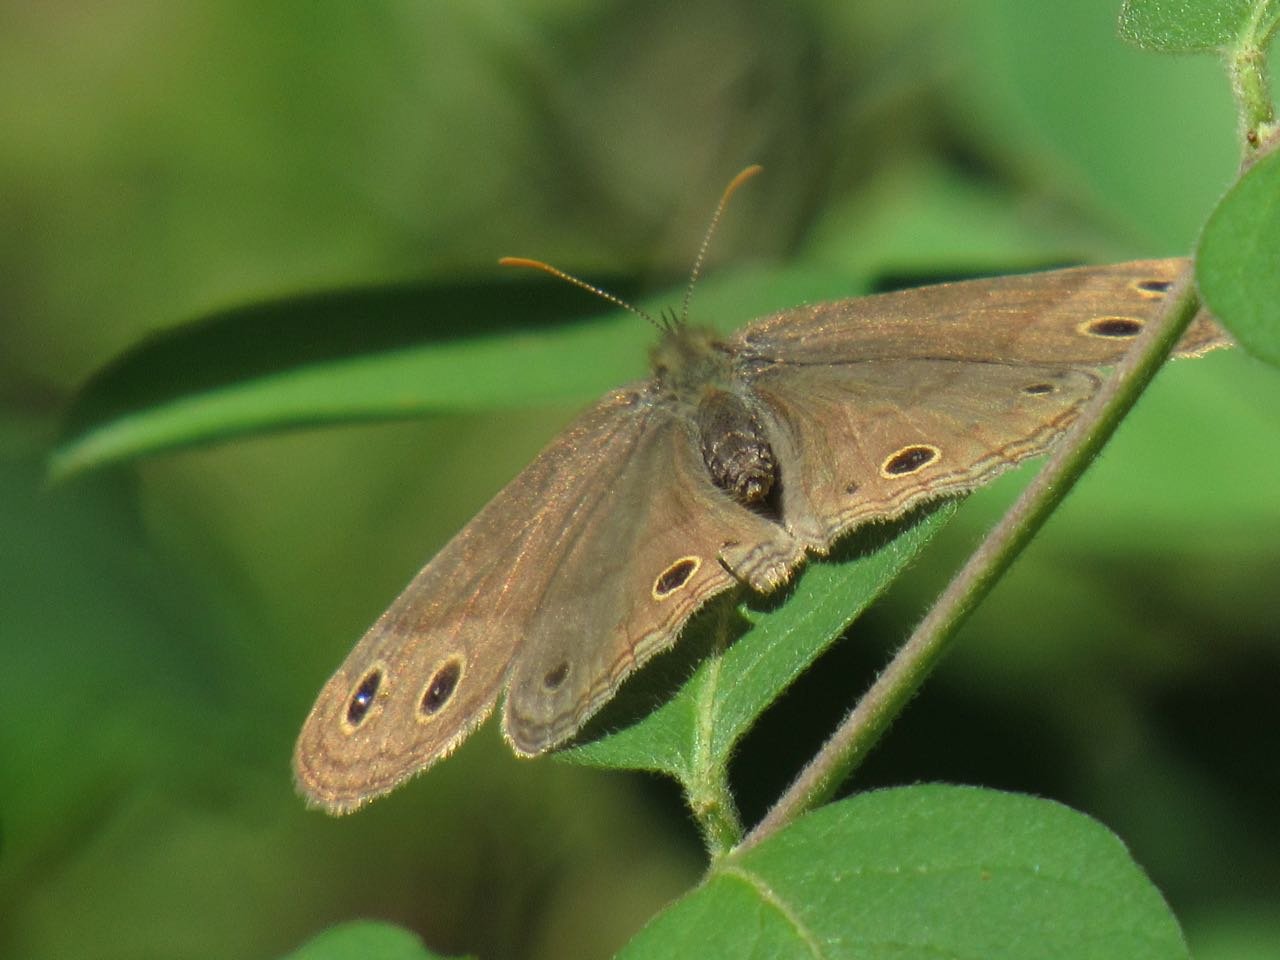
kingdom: Animalia
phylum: Arthropoda
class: Insecta
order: Lepidoptera
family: Nymphalidae
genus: Euptychia
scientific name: Euptychia cymela
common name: Little Wood Satyr
